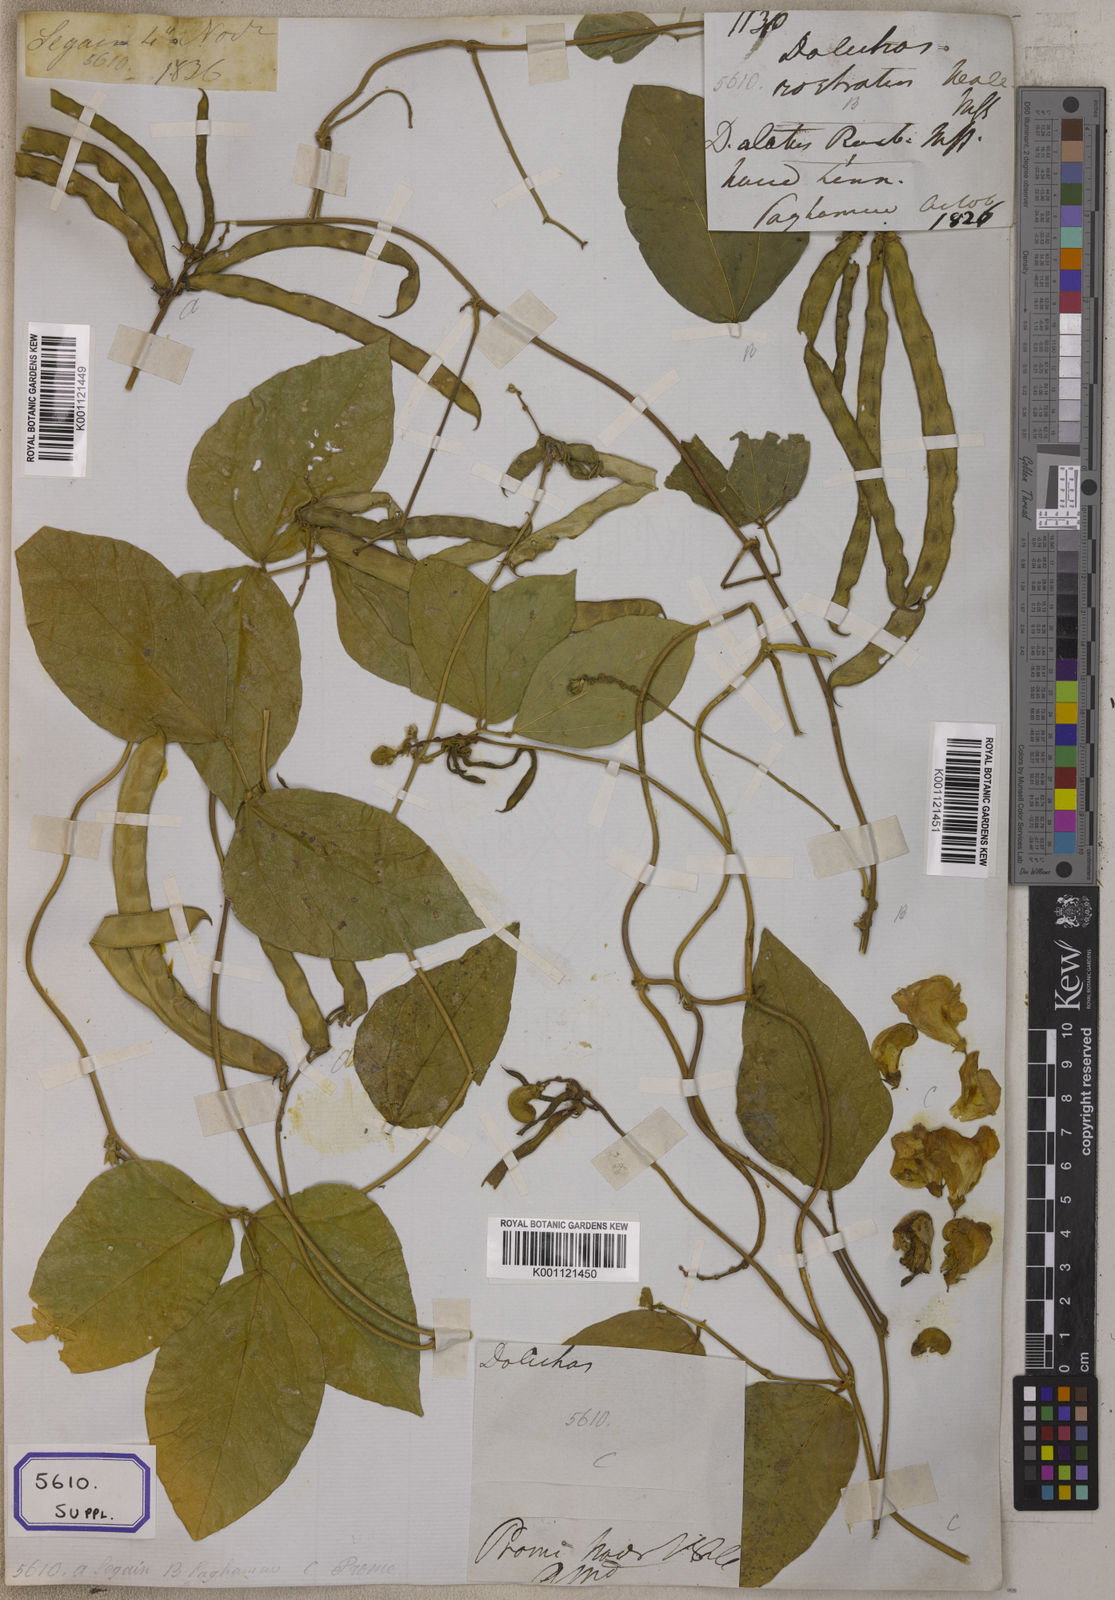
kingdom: Plantae
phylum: Tracheophyta
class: Magnoliopsida
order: Fabales
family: Fabaceae
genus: Leptospron
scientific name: Leptospron adenanthum
